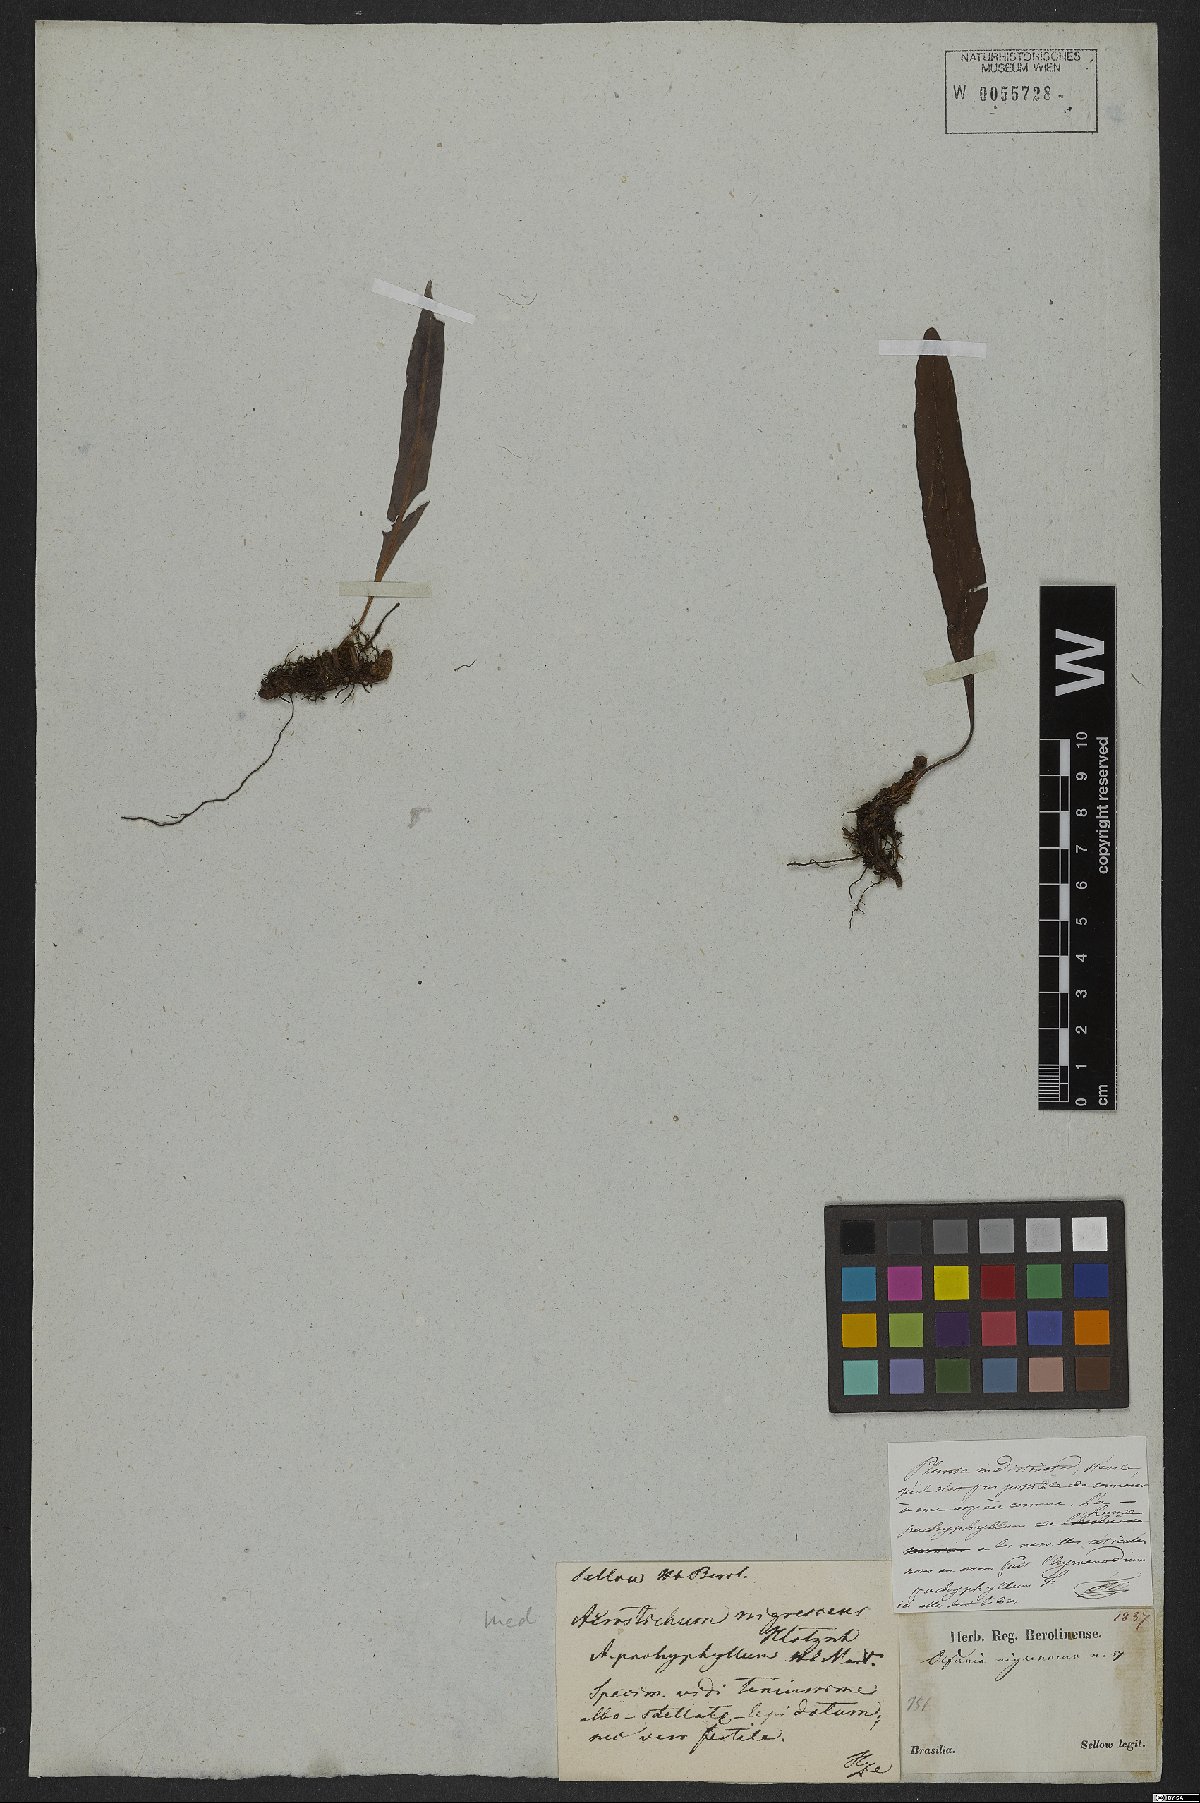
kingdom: Plantae
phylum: Tracheophyta
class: Polypodiopsida
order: Polypodiales
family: Dryopteridaceae
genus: Elaphoglossum
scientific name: Elaphoglossum nigrescens
